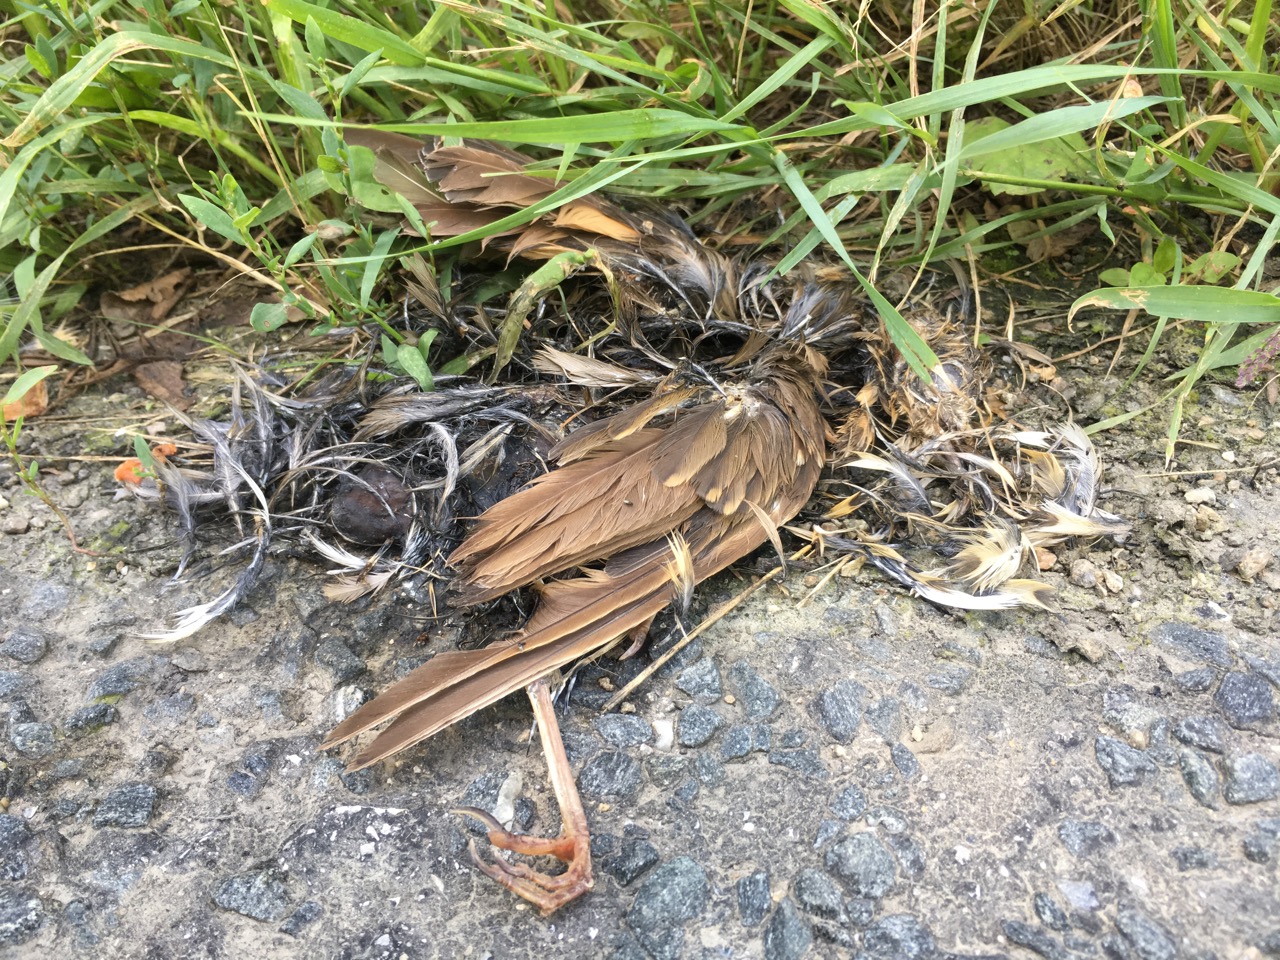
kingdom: Animalia
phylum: Chordata
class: Aves
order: Passeriformes
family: Turdidae
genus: Turdus
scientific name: Turdus philomelos
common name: Song thrush
